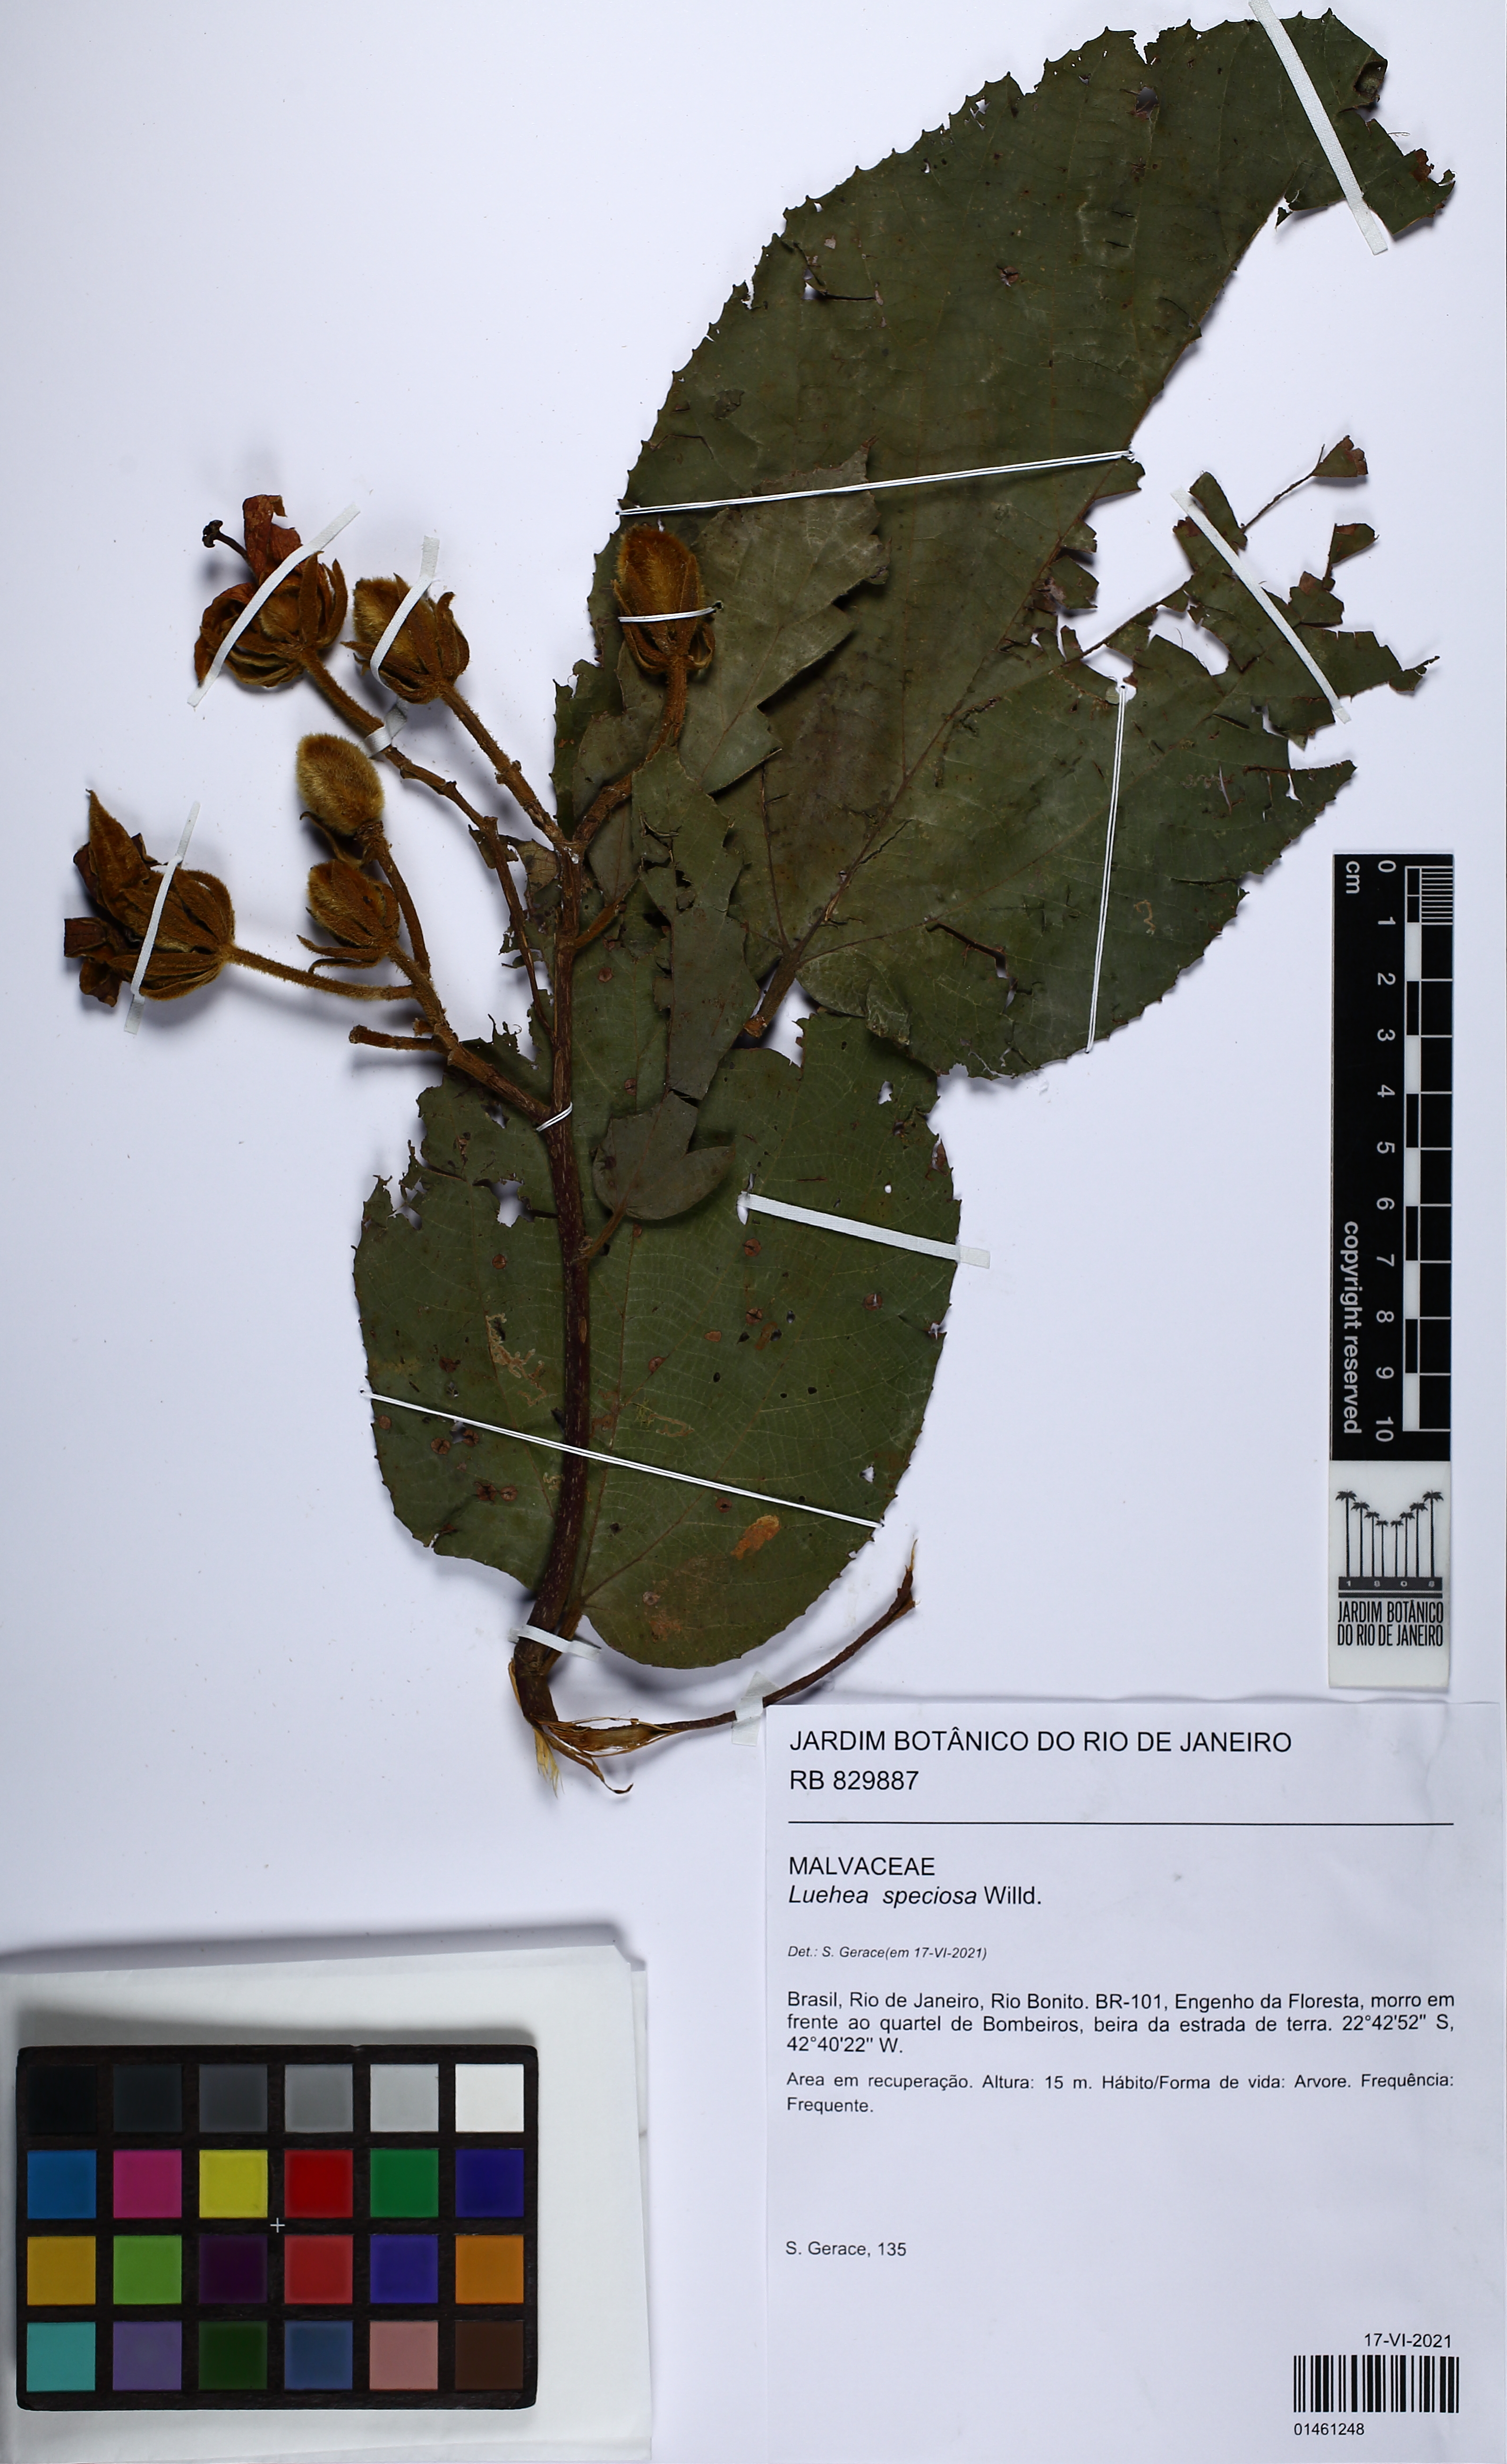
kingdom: Plantae
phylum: Tracheophyta
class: Magnoliopsida
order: Malvales
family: Malvaceae
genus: Luehea
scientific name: Luehea speciosa
